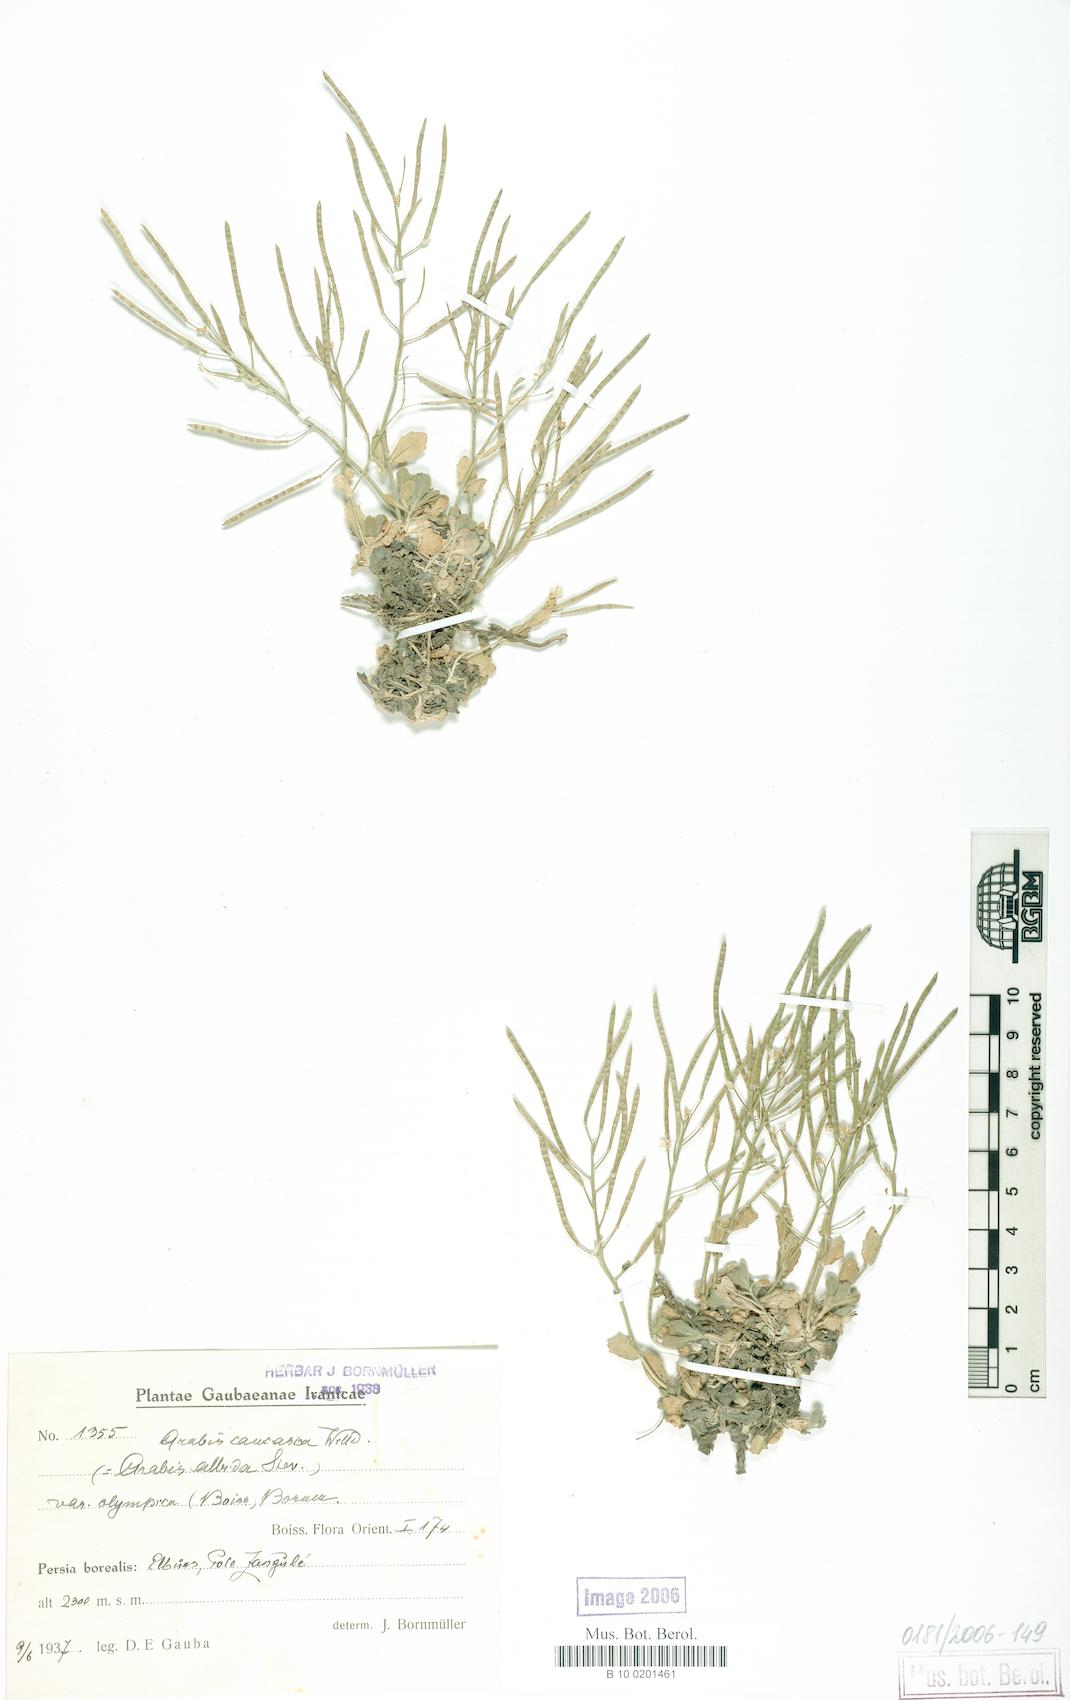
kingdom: Plantae
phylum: Tracheophyta
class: Magnoliopsida
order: Brassicales
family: Brassicaceae
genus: Arabis
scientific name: Arabis caucasica
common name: Gray rockcress
